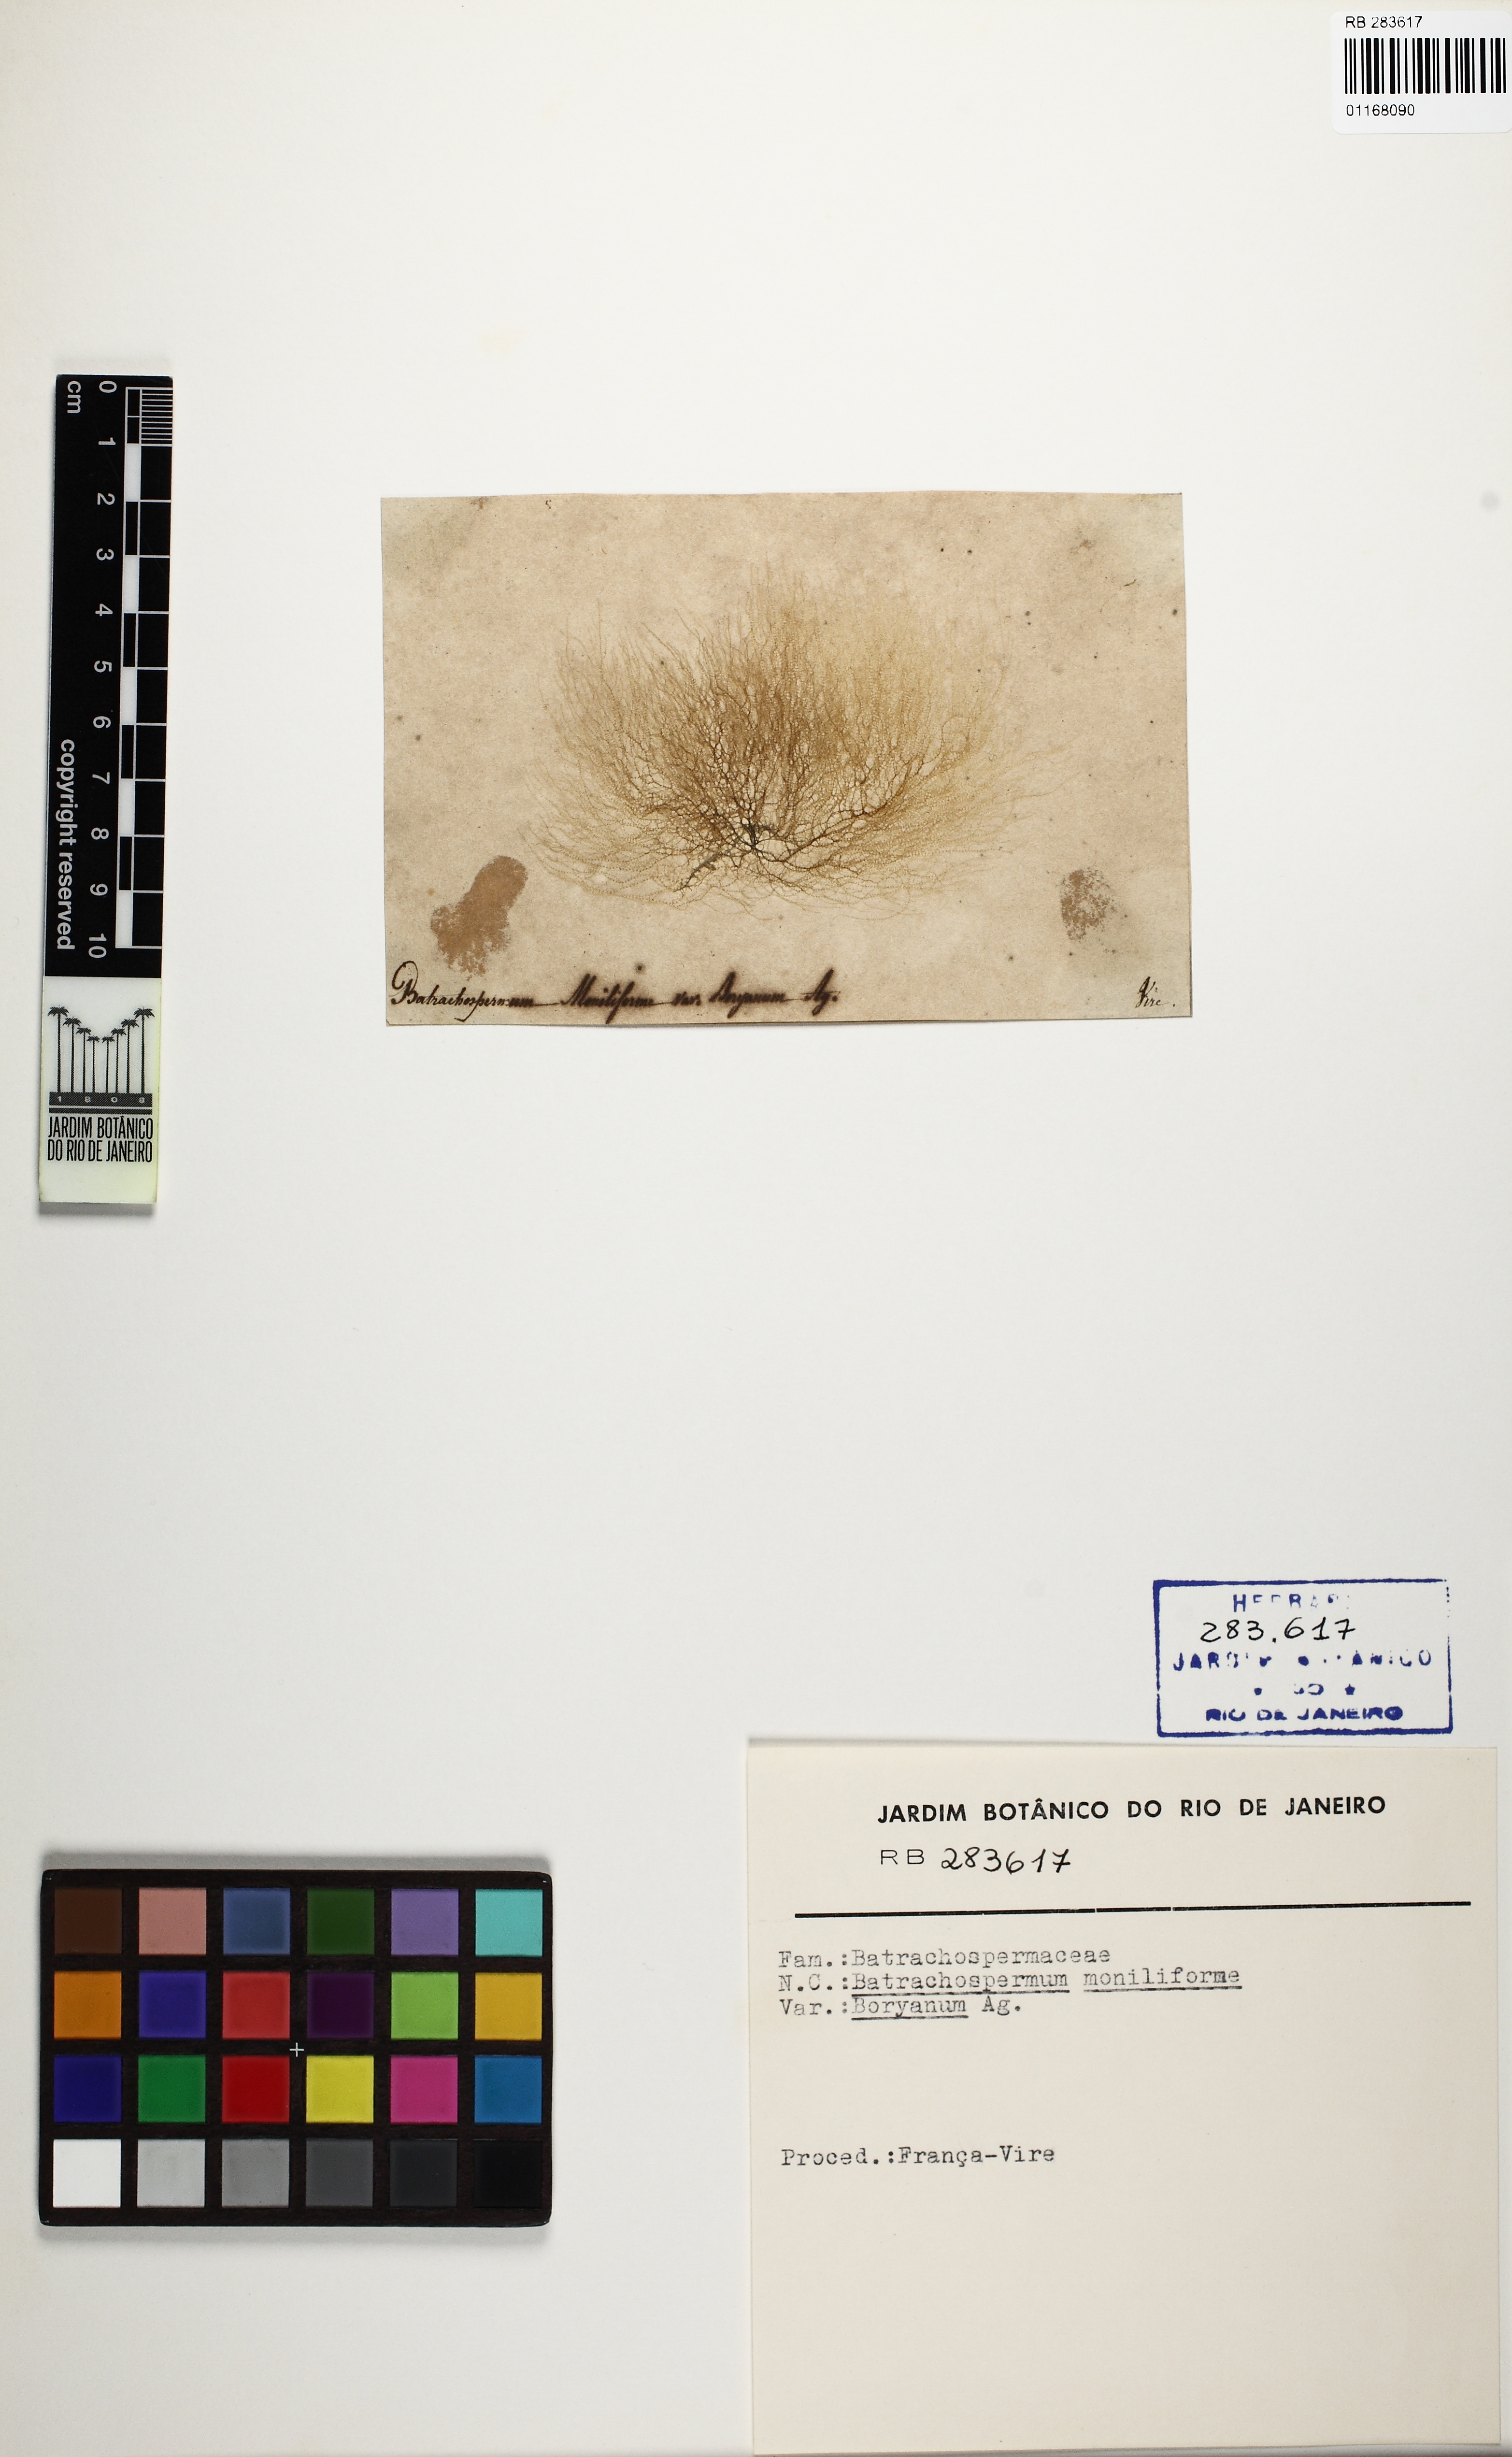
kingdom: Plantae
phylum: Rhodophyta
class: Florideophyceae
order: Batrachospermales
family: Batrachospermaceae
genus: Batrachospermum
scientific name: Batrachospermum gelatinosum
